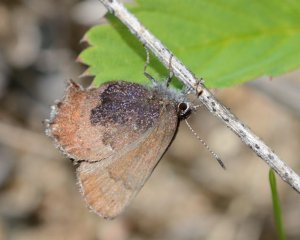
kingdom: Animalia
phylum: Arthropoda
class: Insecta
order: Lepidoptera
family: Lycaenidae
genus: Incisalia
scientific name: Incisalia irioides
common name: Brown Elfin
